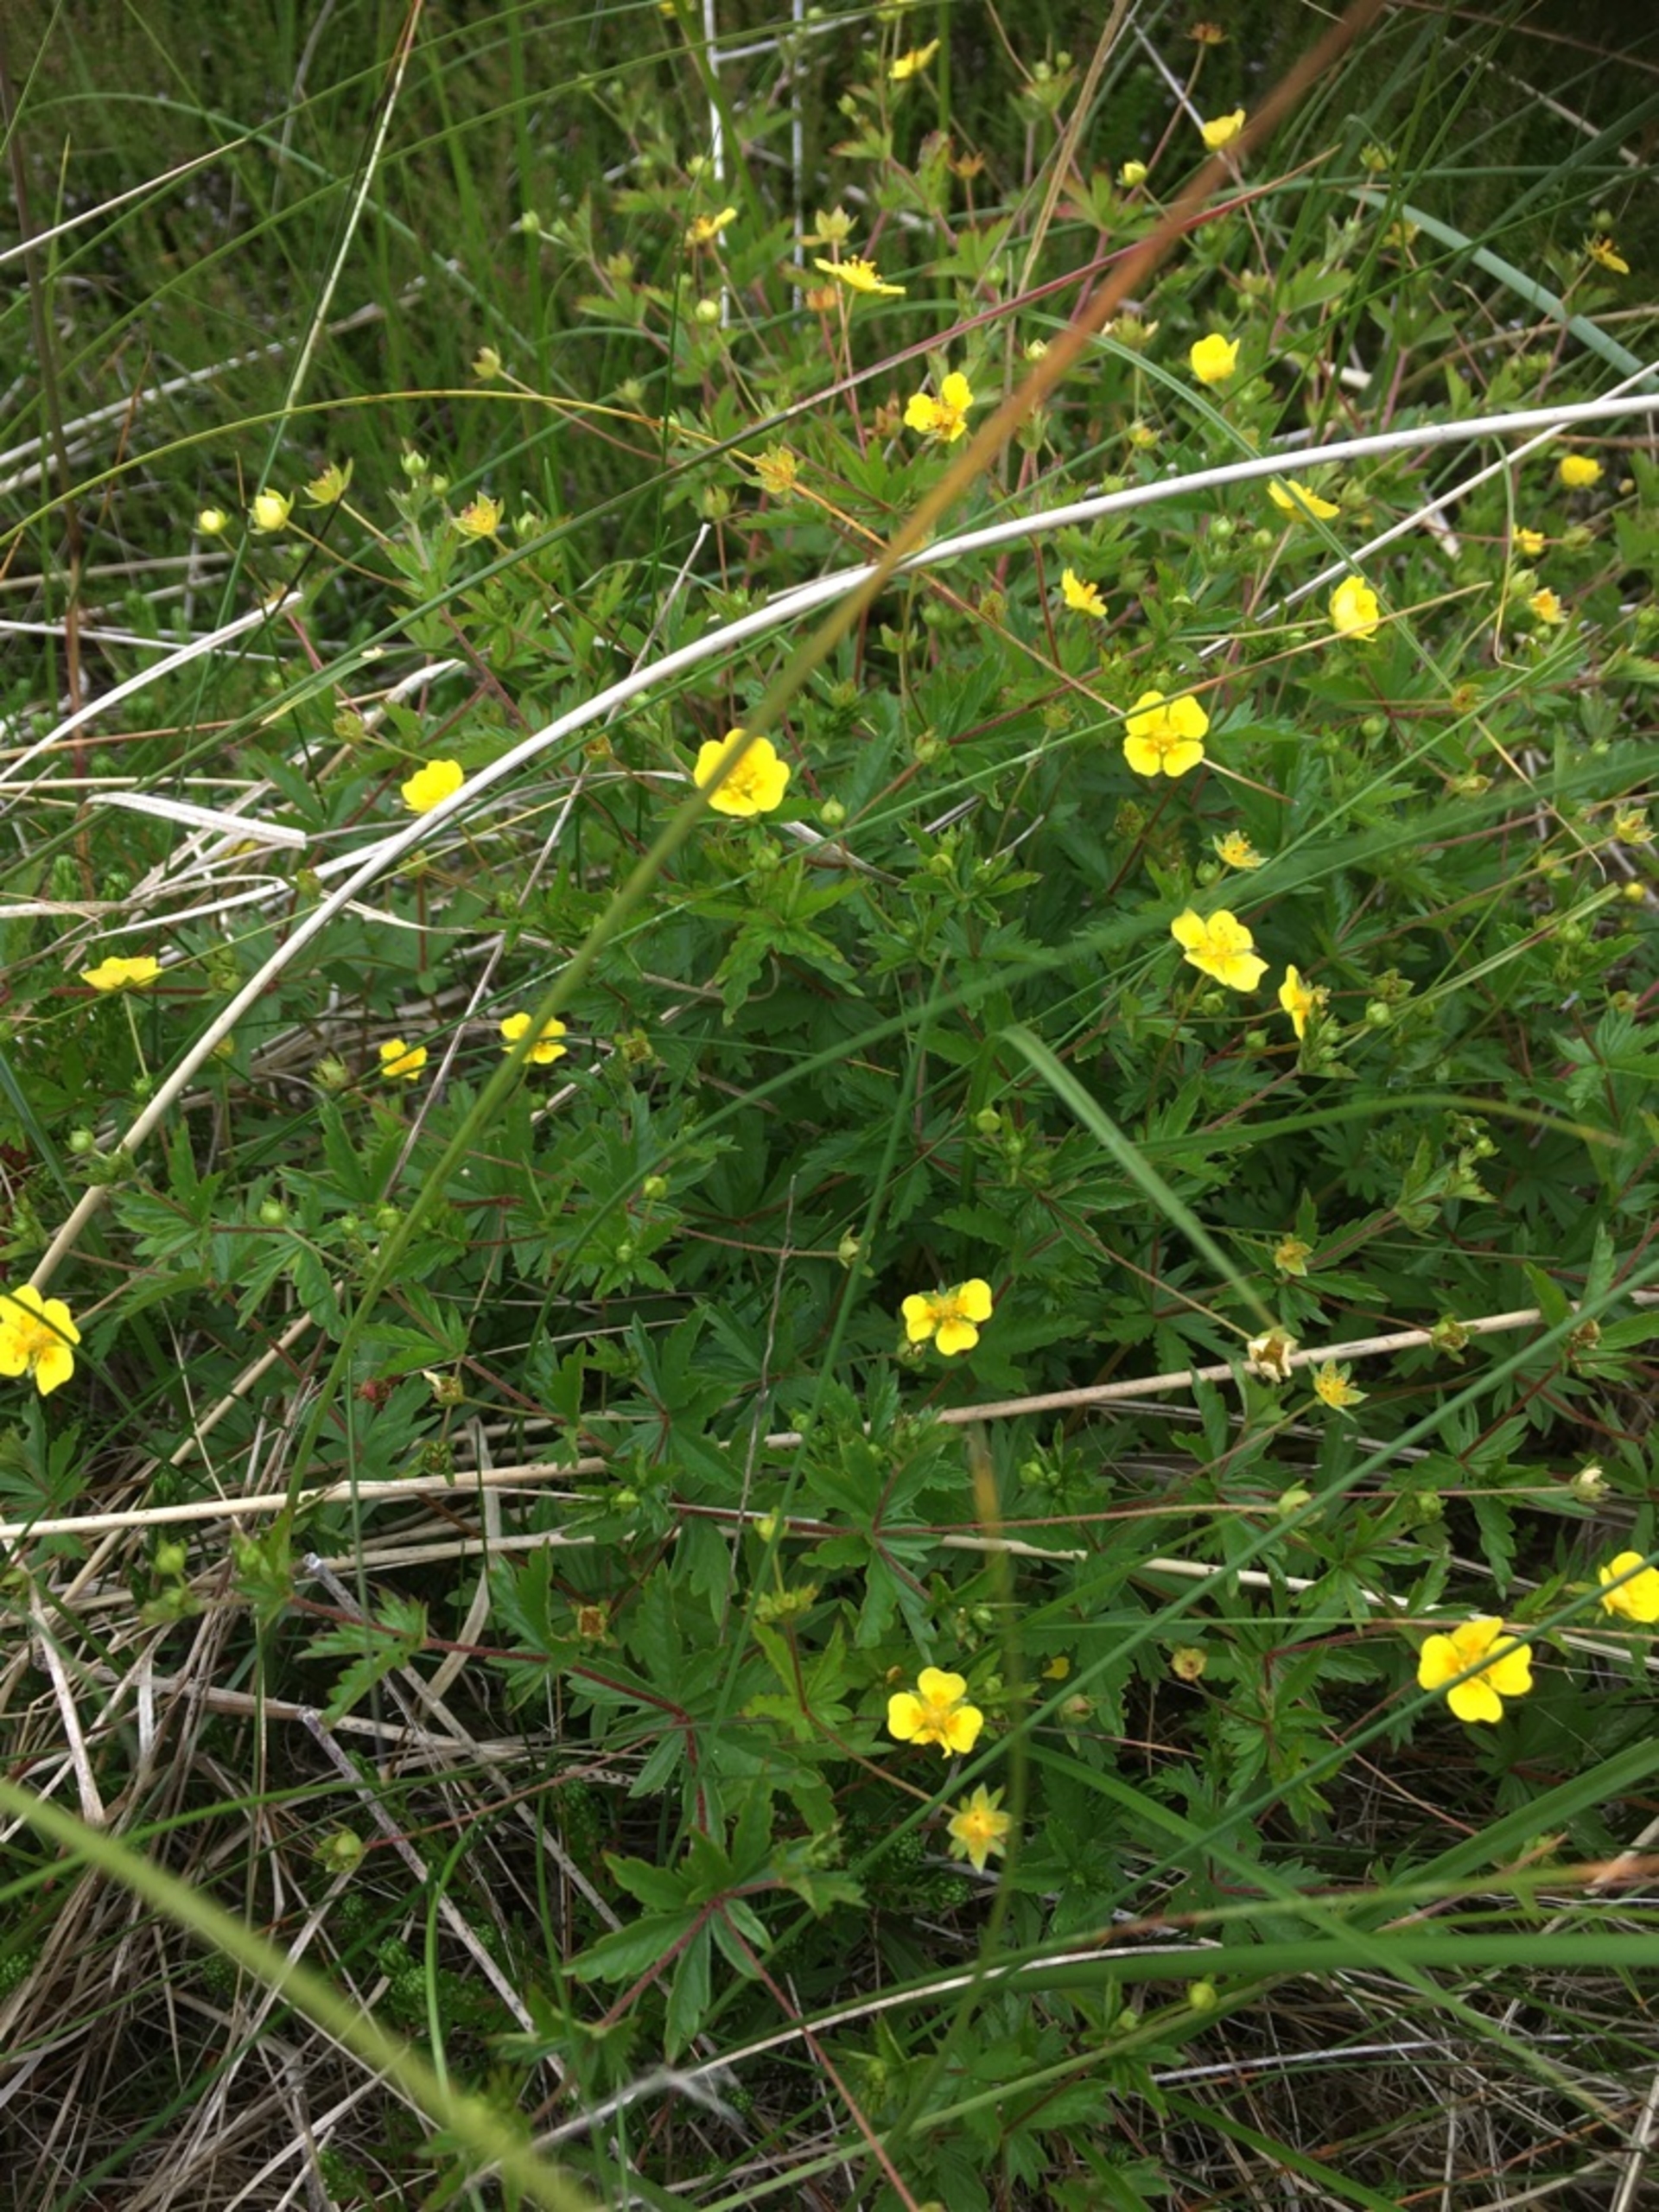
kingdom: Plantae
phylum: Tracheophyta
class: Magnoliopsida
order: Rosales
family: Rosaceae
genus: Potentilla
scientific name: Potentilla erecta
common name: Tormentil
